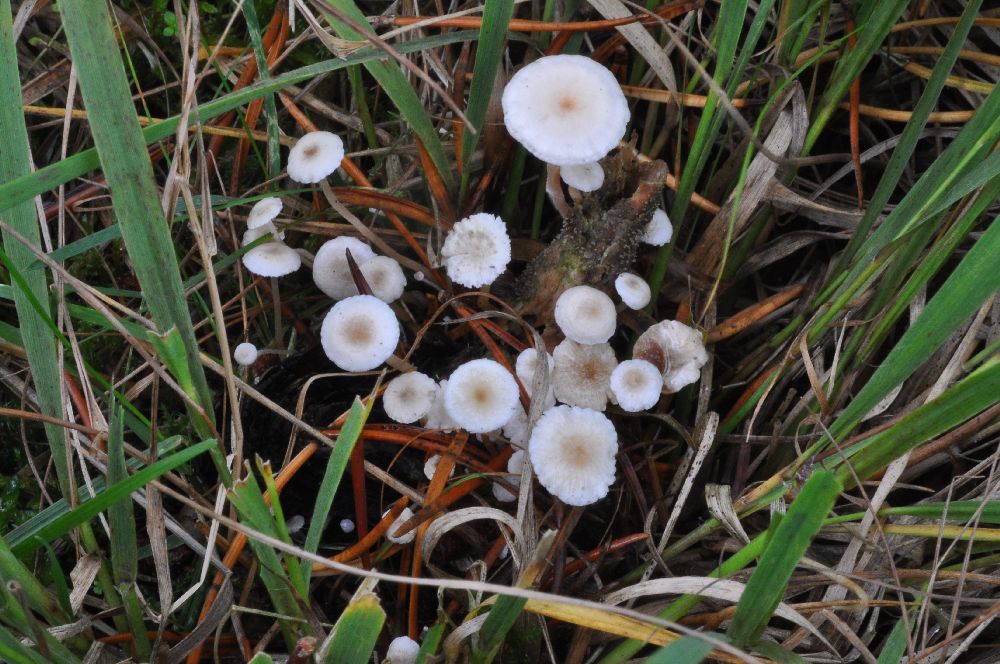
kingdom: Fungi
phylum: Basidiomycota
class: Agaricomycetes
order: Agaricales
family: Tricholomataceae
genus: Collybia
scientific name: Collybia cirrhata
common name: silke-lighat
